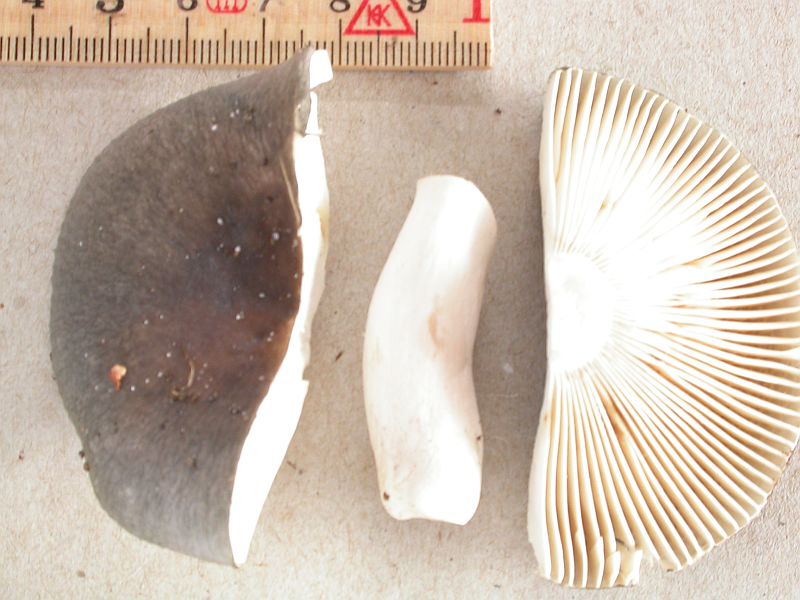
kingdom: Fungi
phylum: Basidiomycota
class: Agaricomycetes
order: Russulales
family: Russulaceae
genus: Russula
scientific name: Russula parazurea
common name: blågrå skørhat
